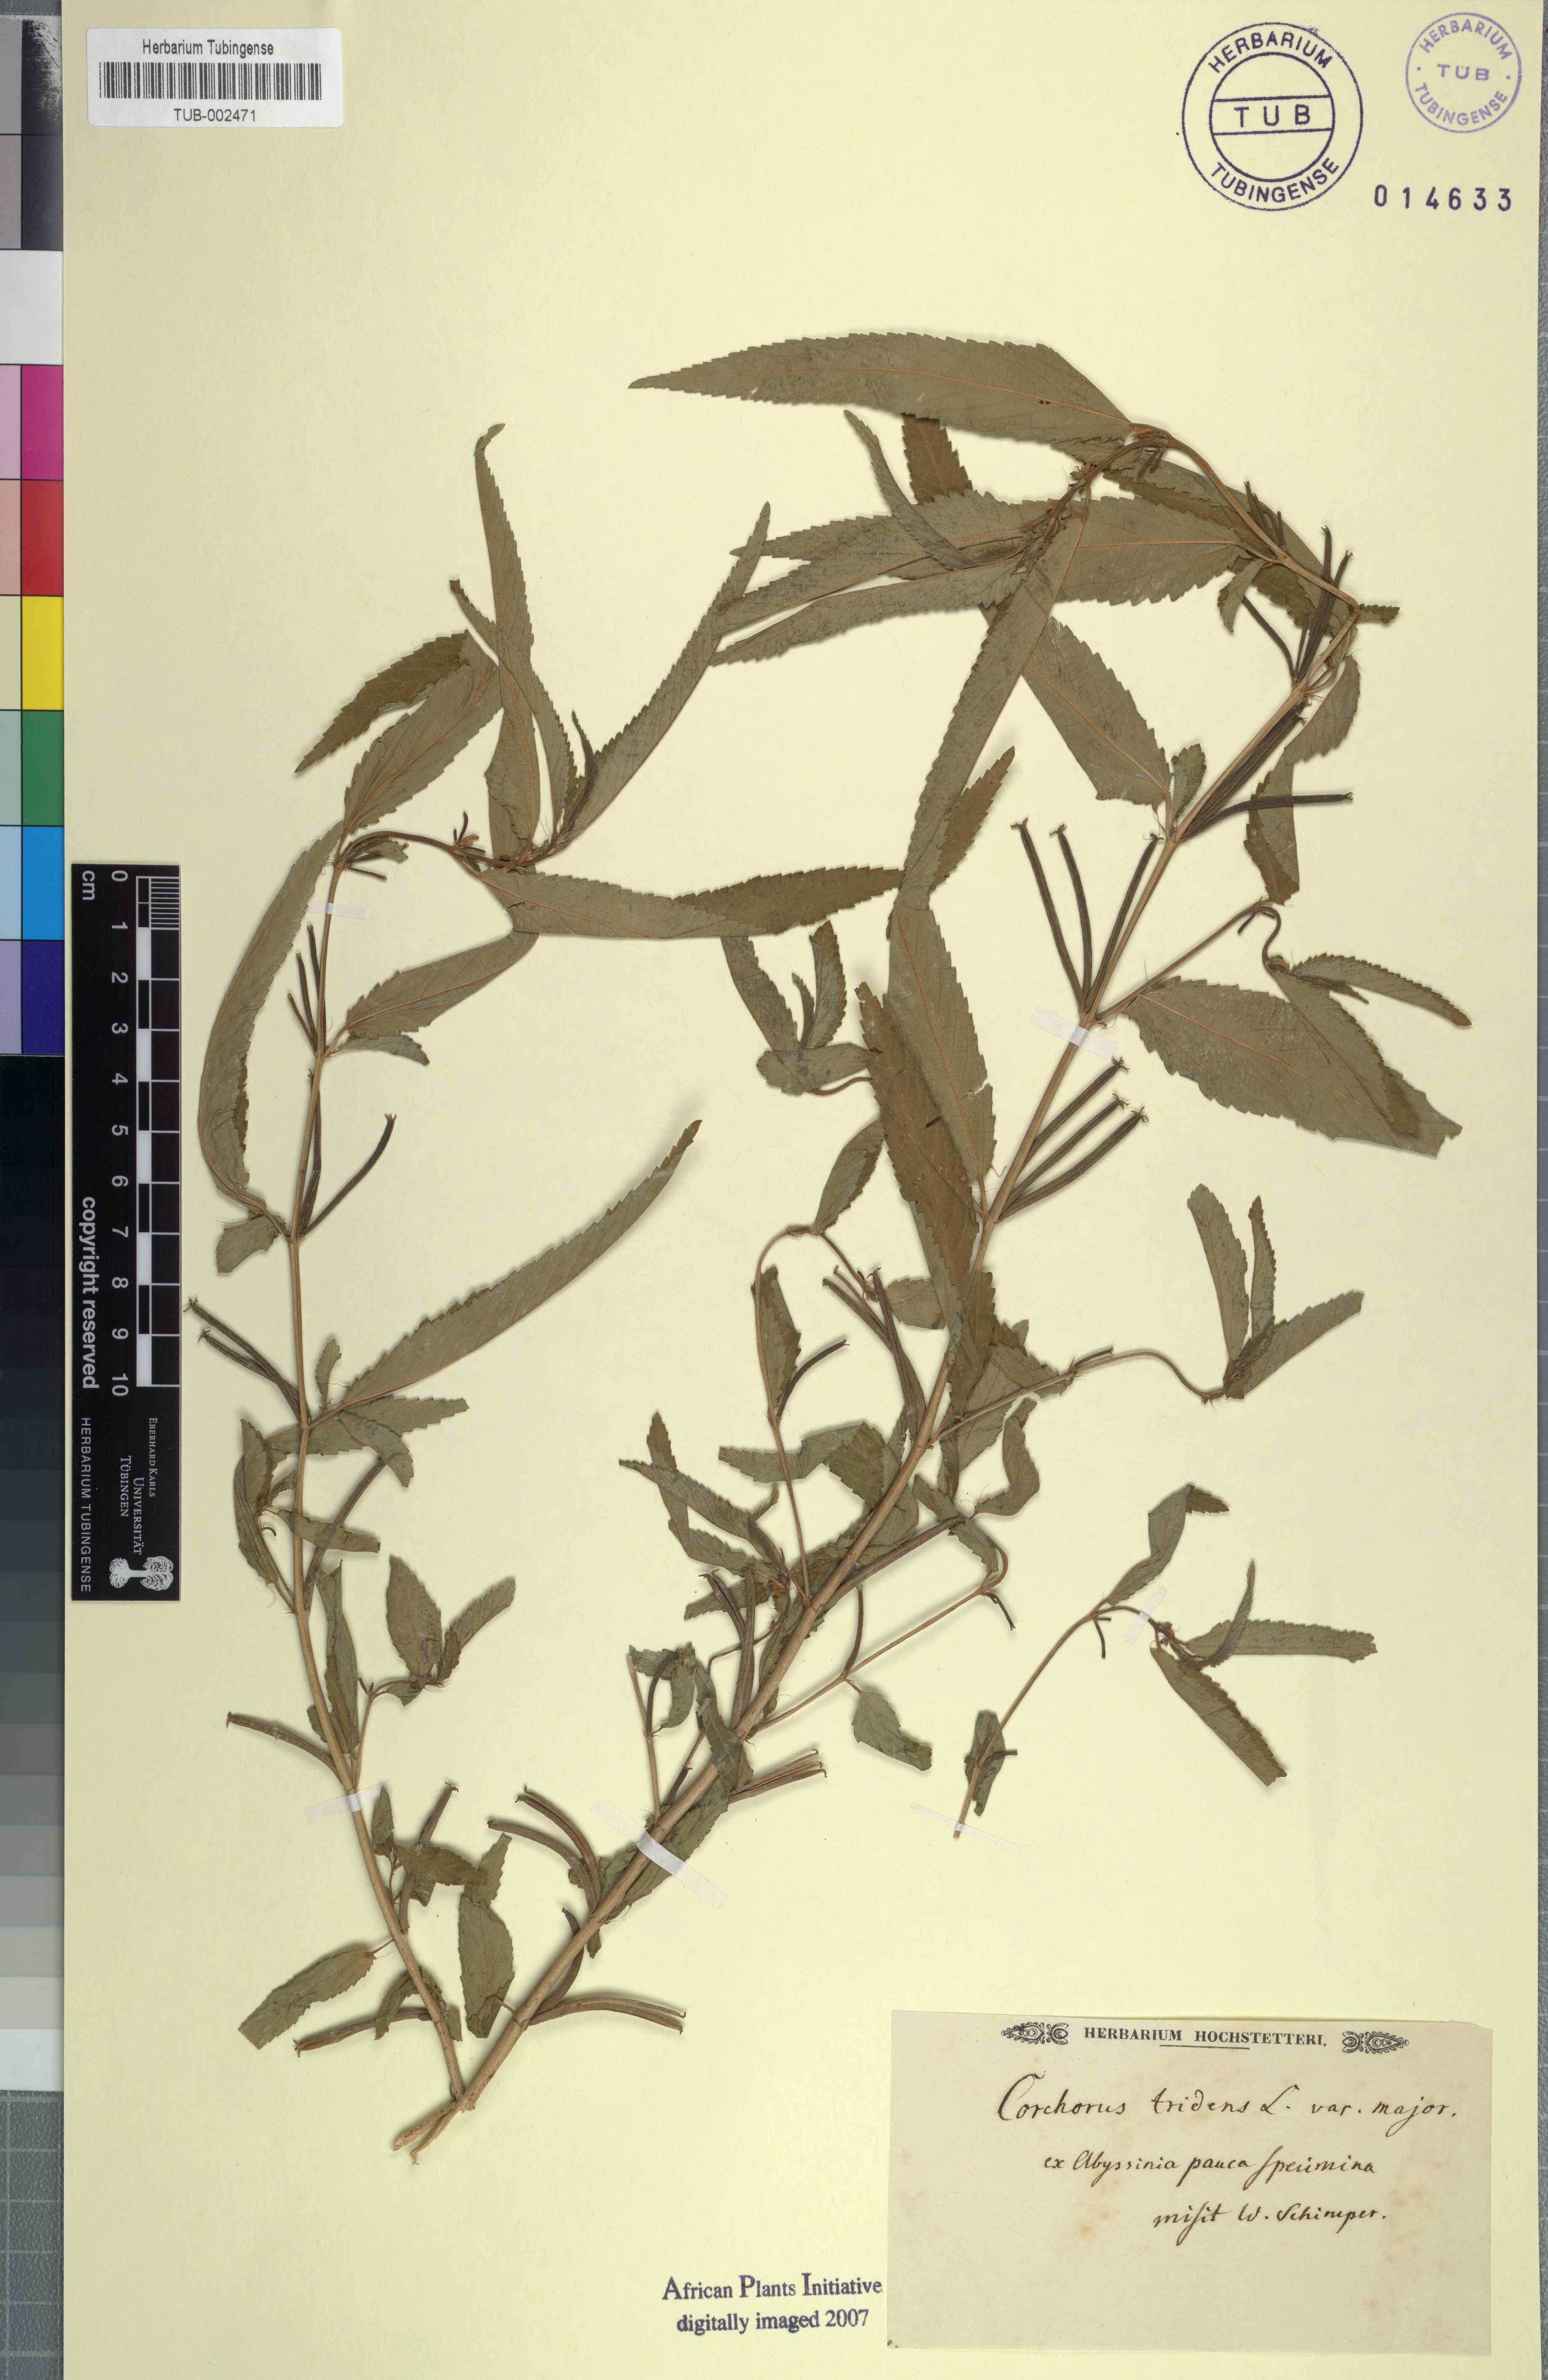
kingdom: Plantae
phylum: Tracheophyta
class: Magnoliopsida
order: Malvales
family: Malvaceae
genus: Corchorus
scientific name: Corchorus tridens
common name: Wild jute
